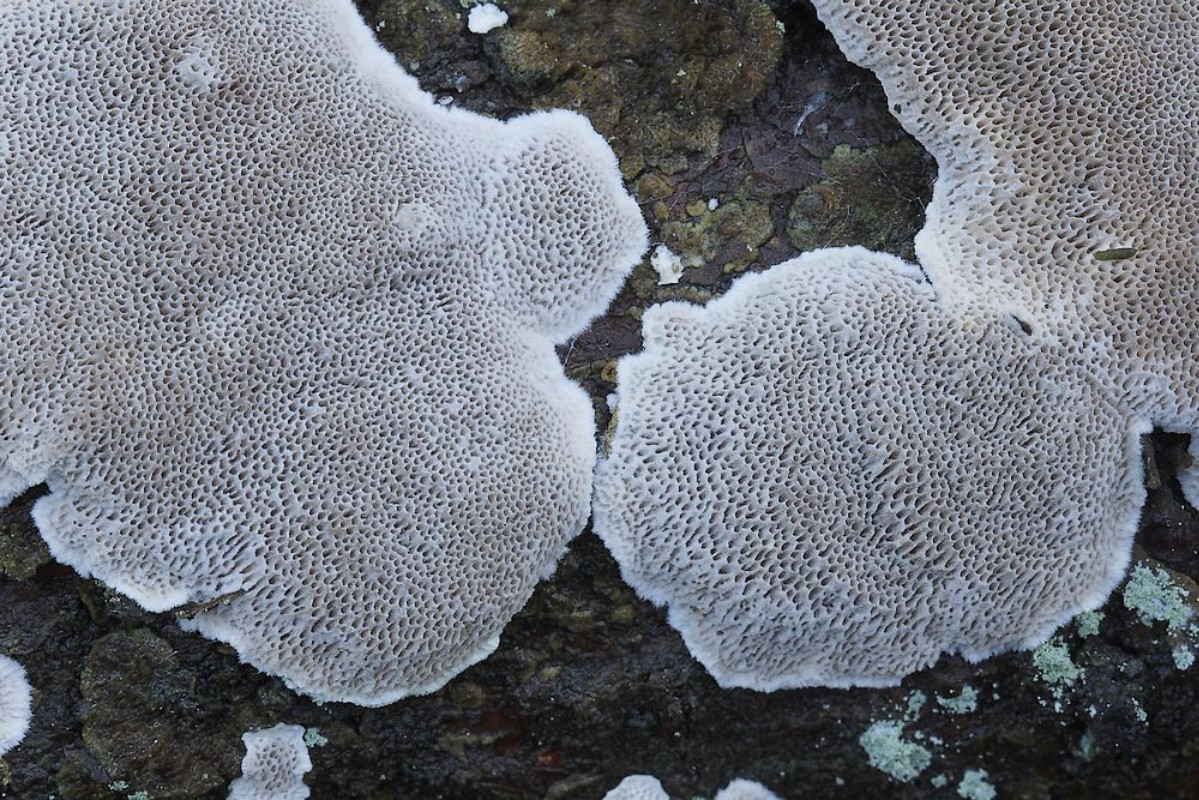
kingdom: Fungi
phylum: Basidiomycota
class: Agaricomycetes
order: Polyporales
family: Gelatoporiaceae
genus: Cinereomyces
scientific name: Cinereomyces lindbladii
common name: almindelig gråporesvamp
